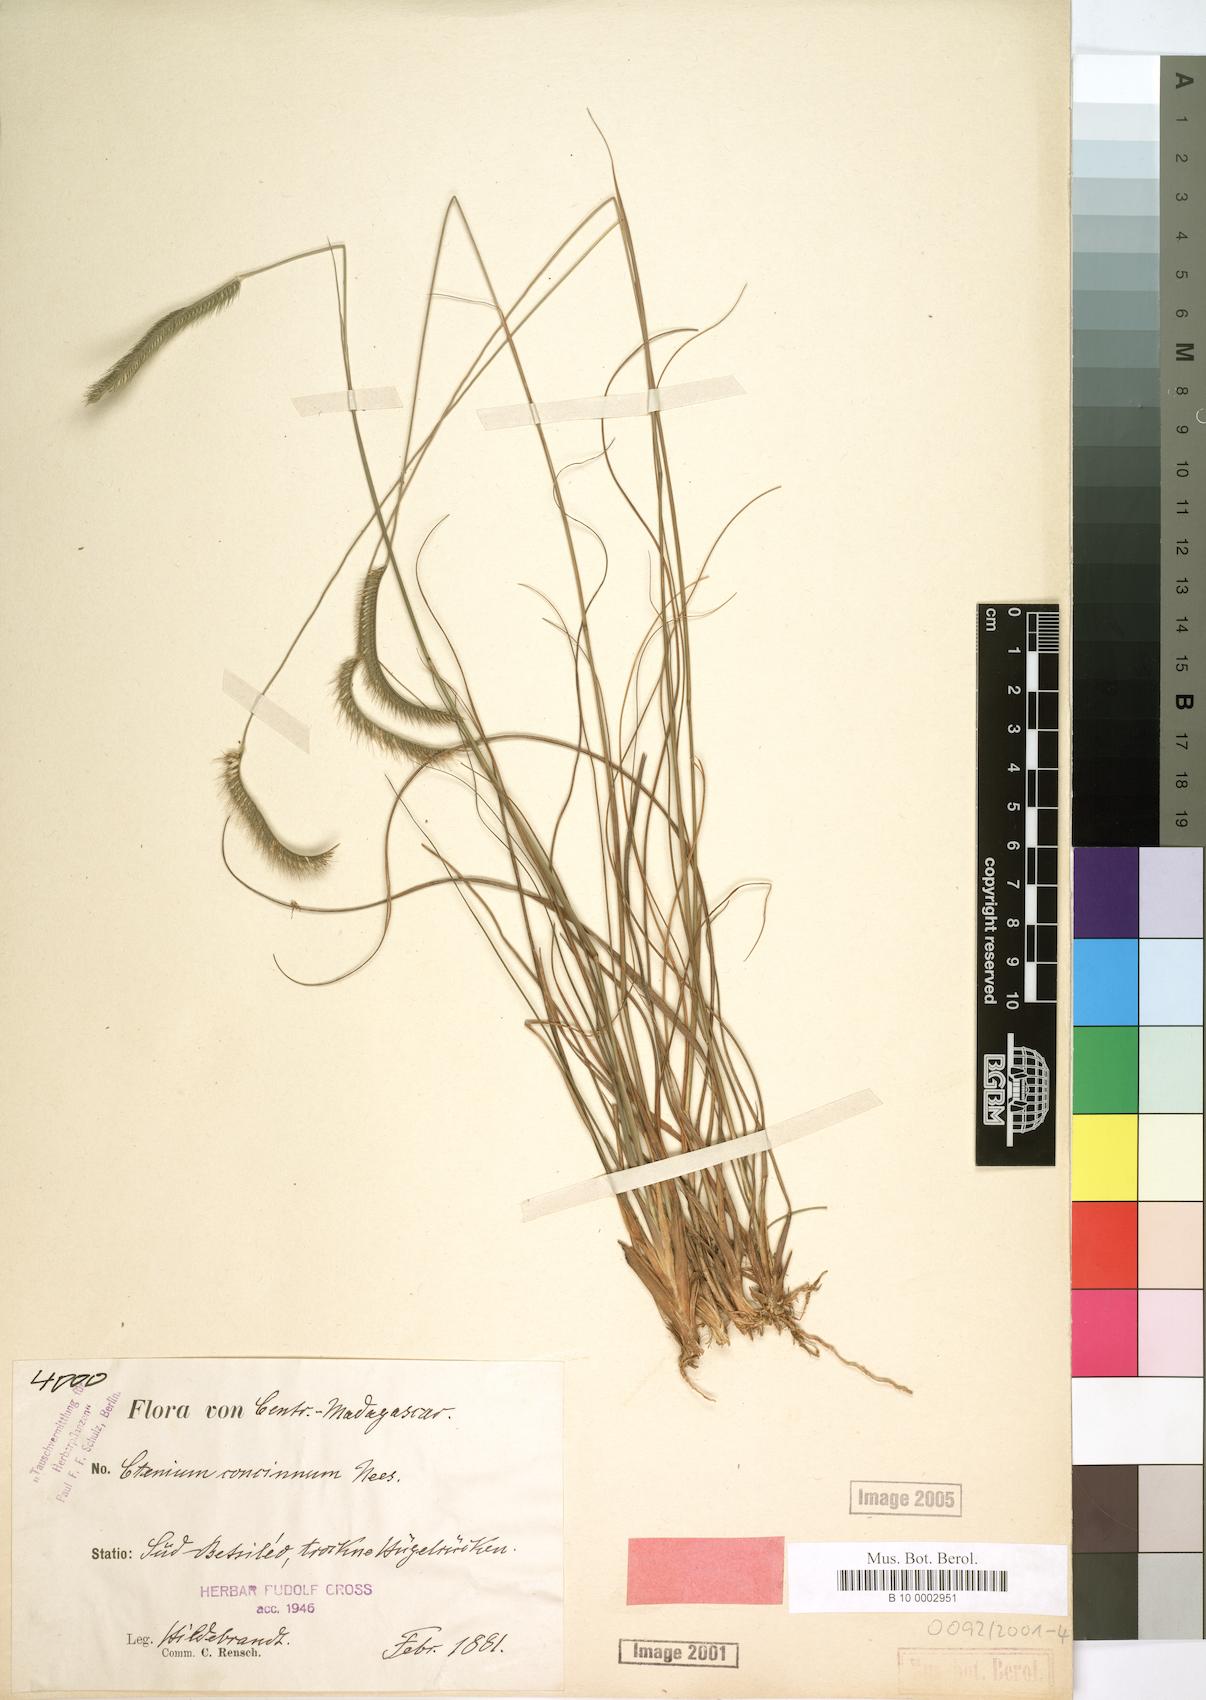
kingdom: Plantae
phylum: Tracheophyta
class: Liliopsida
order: Poales
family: Poaceae
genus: Ctenium
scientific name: Ctenium concinnum
